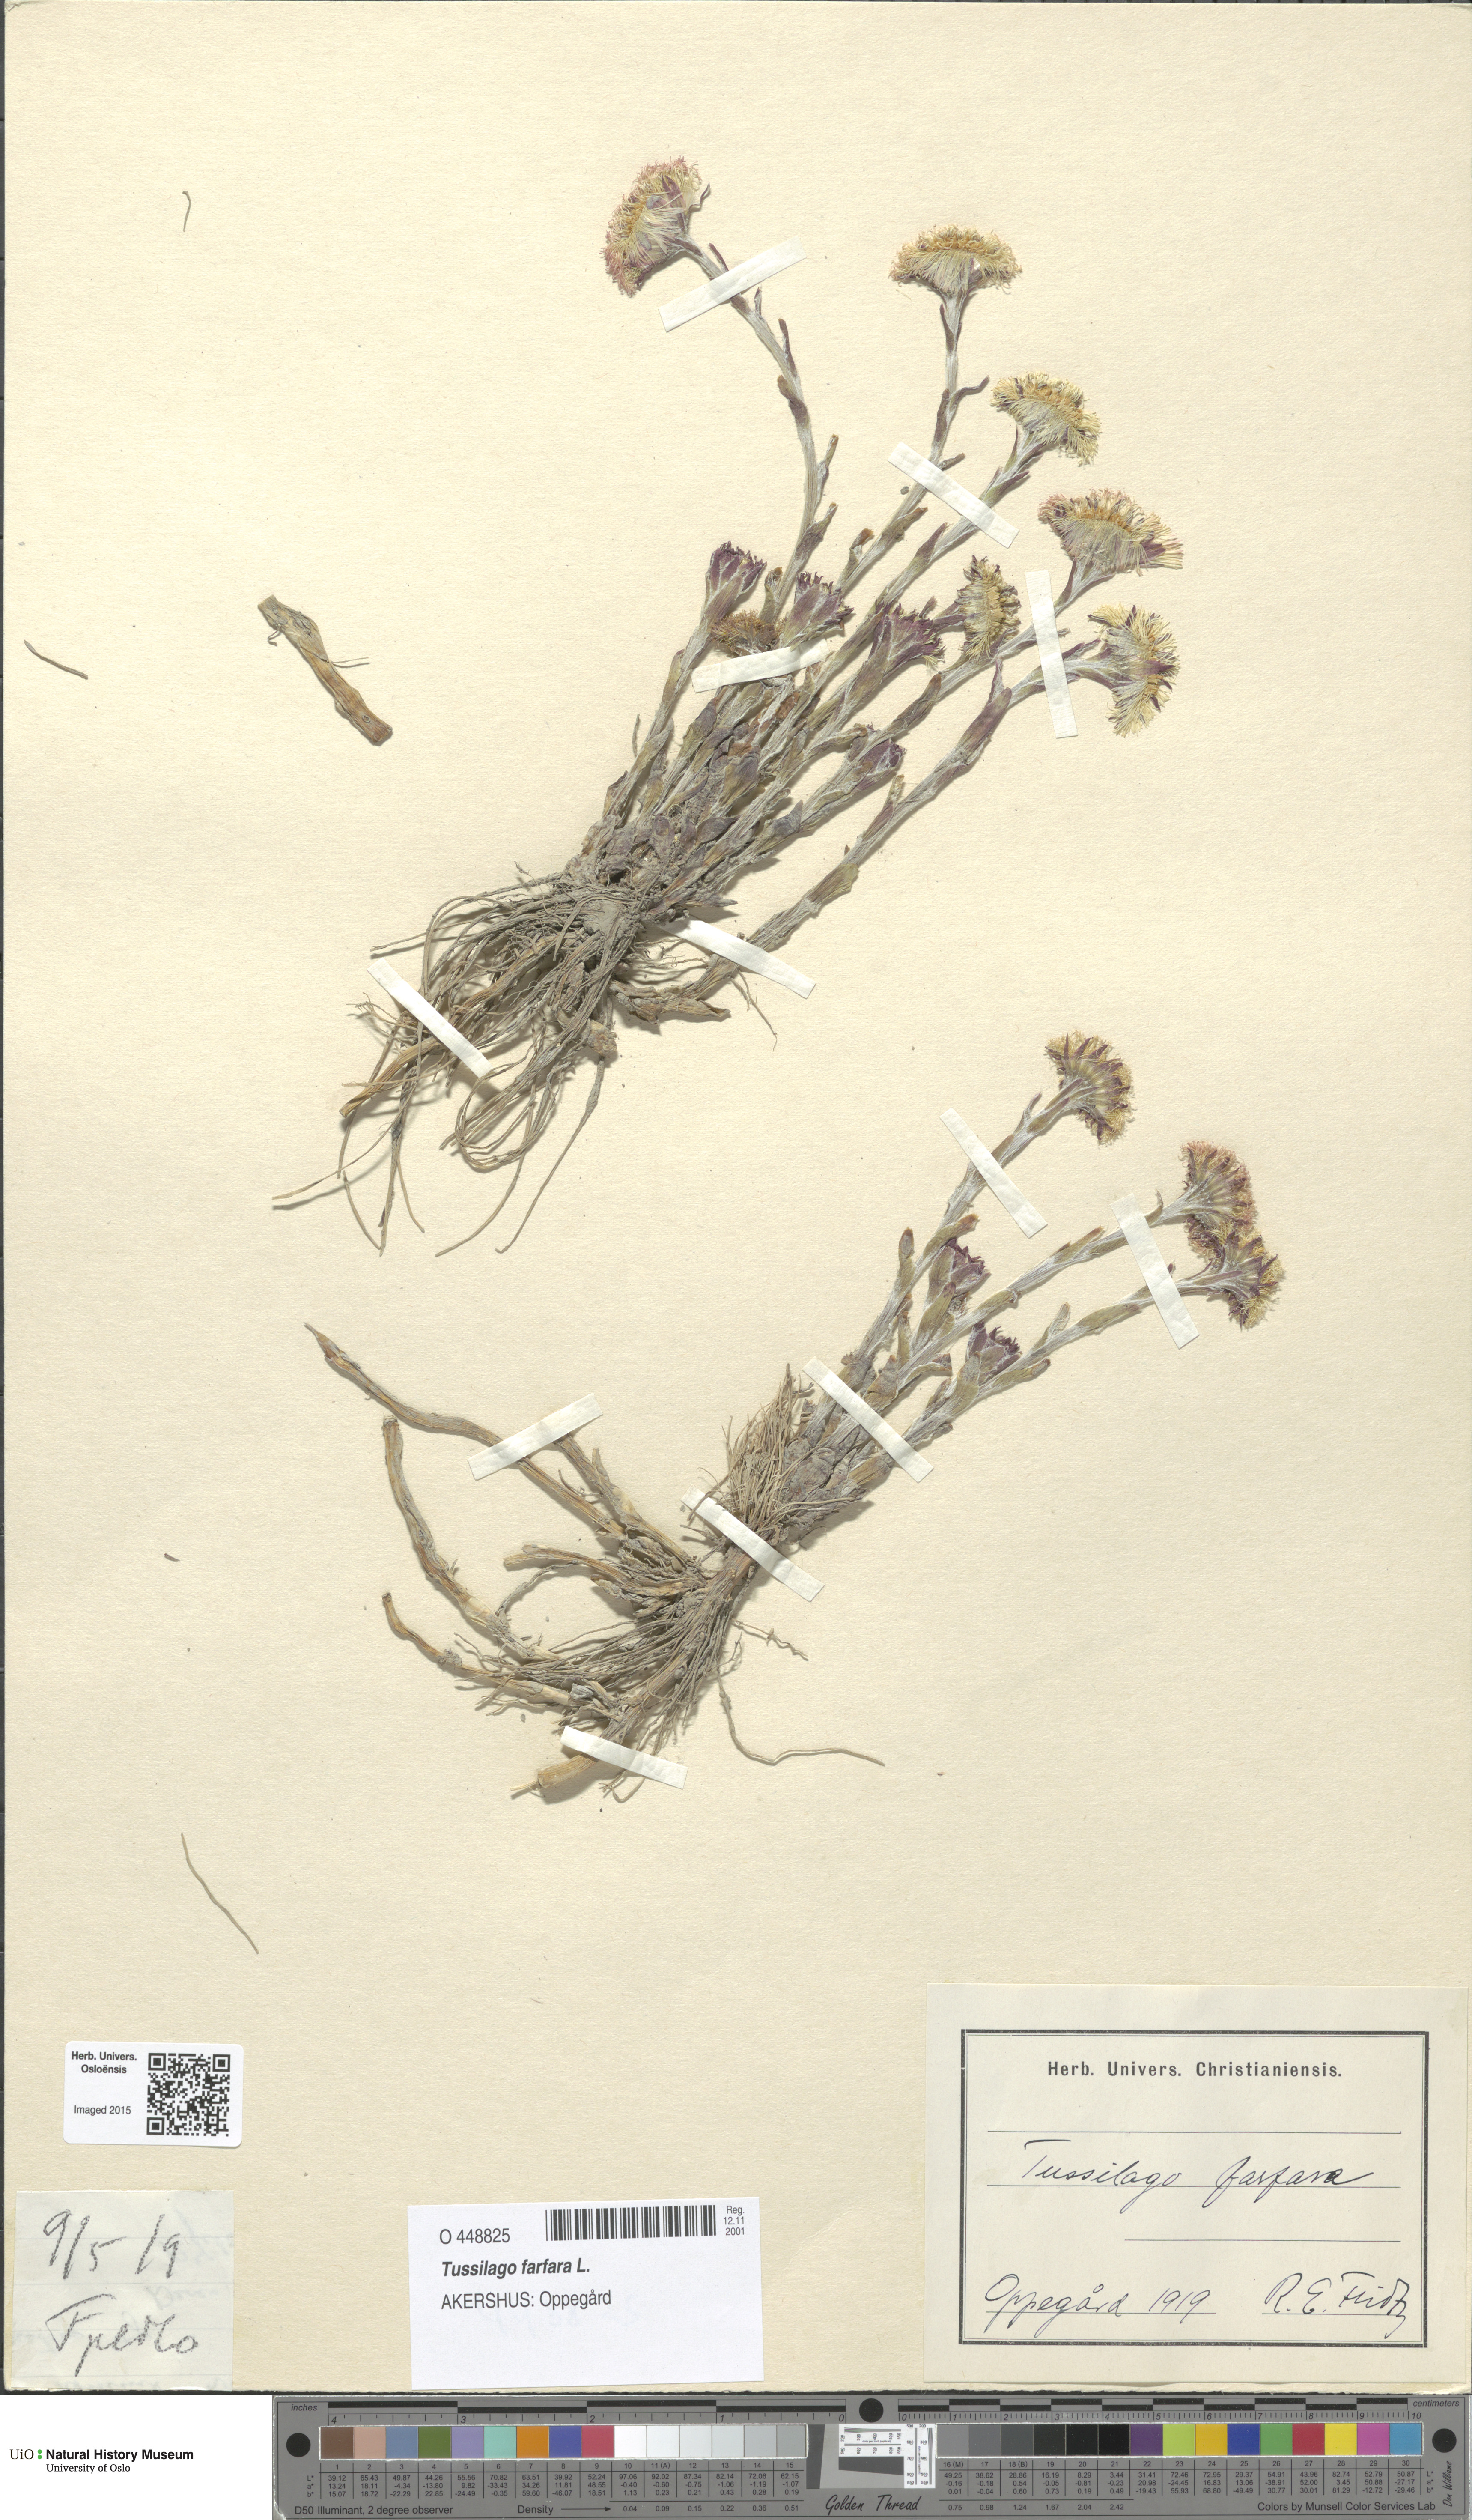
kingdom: Plantae
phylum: Tracheophyta
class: Magnoliopsida
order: Asterales
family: Asteraceae
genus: Tussilago
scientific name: Tussilago farfara
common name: Coltsfoot
